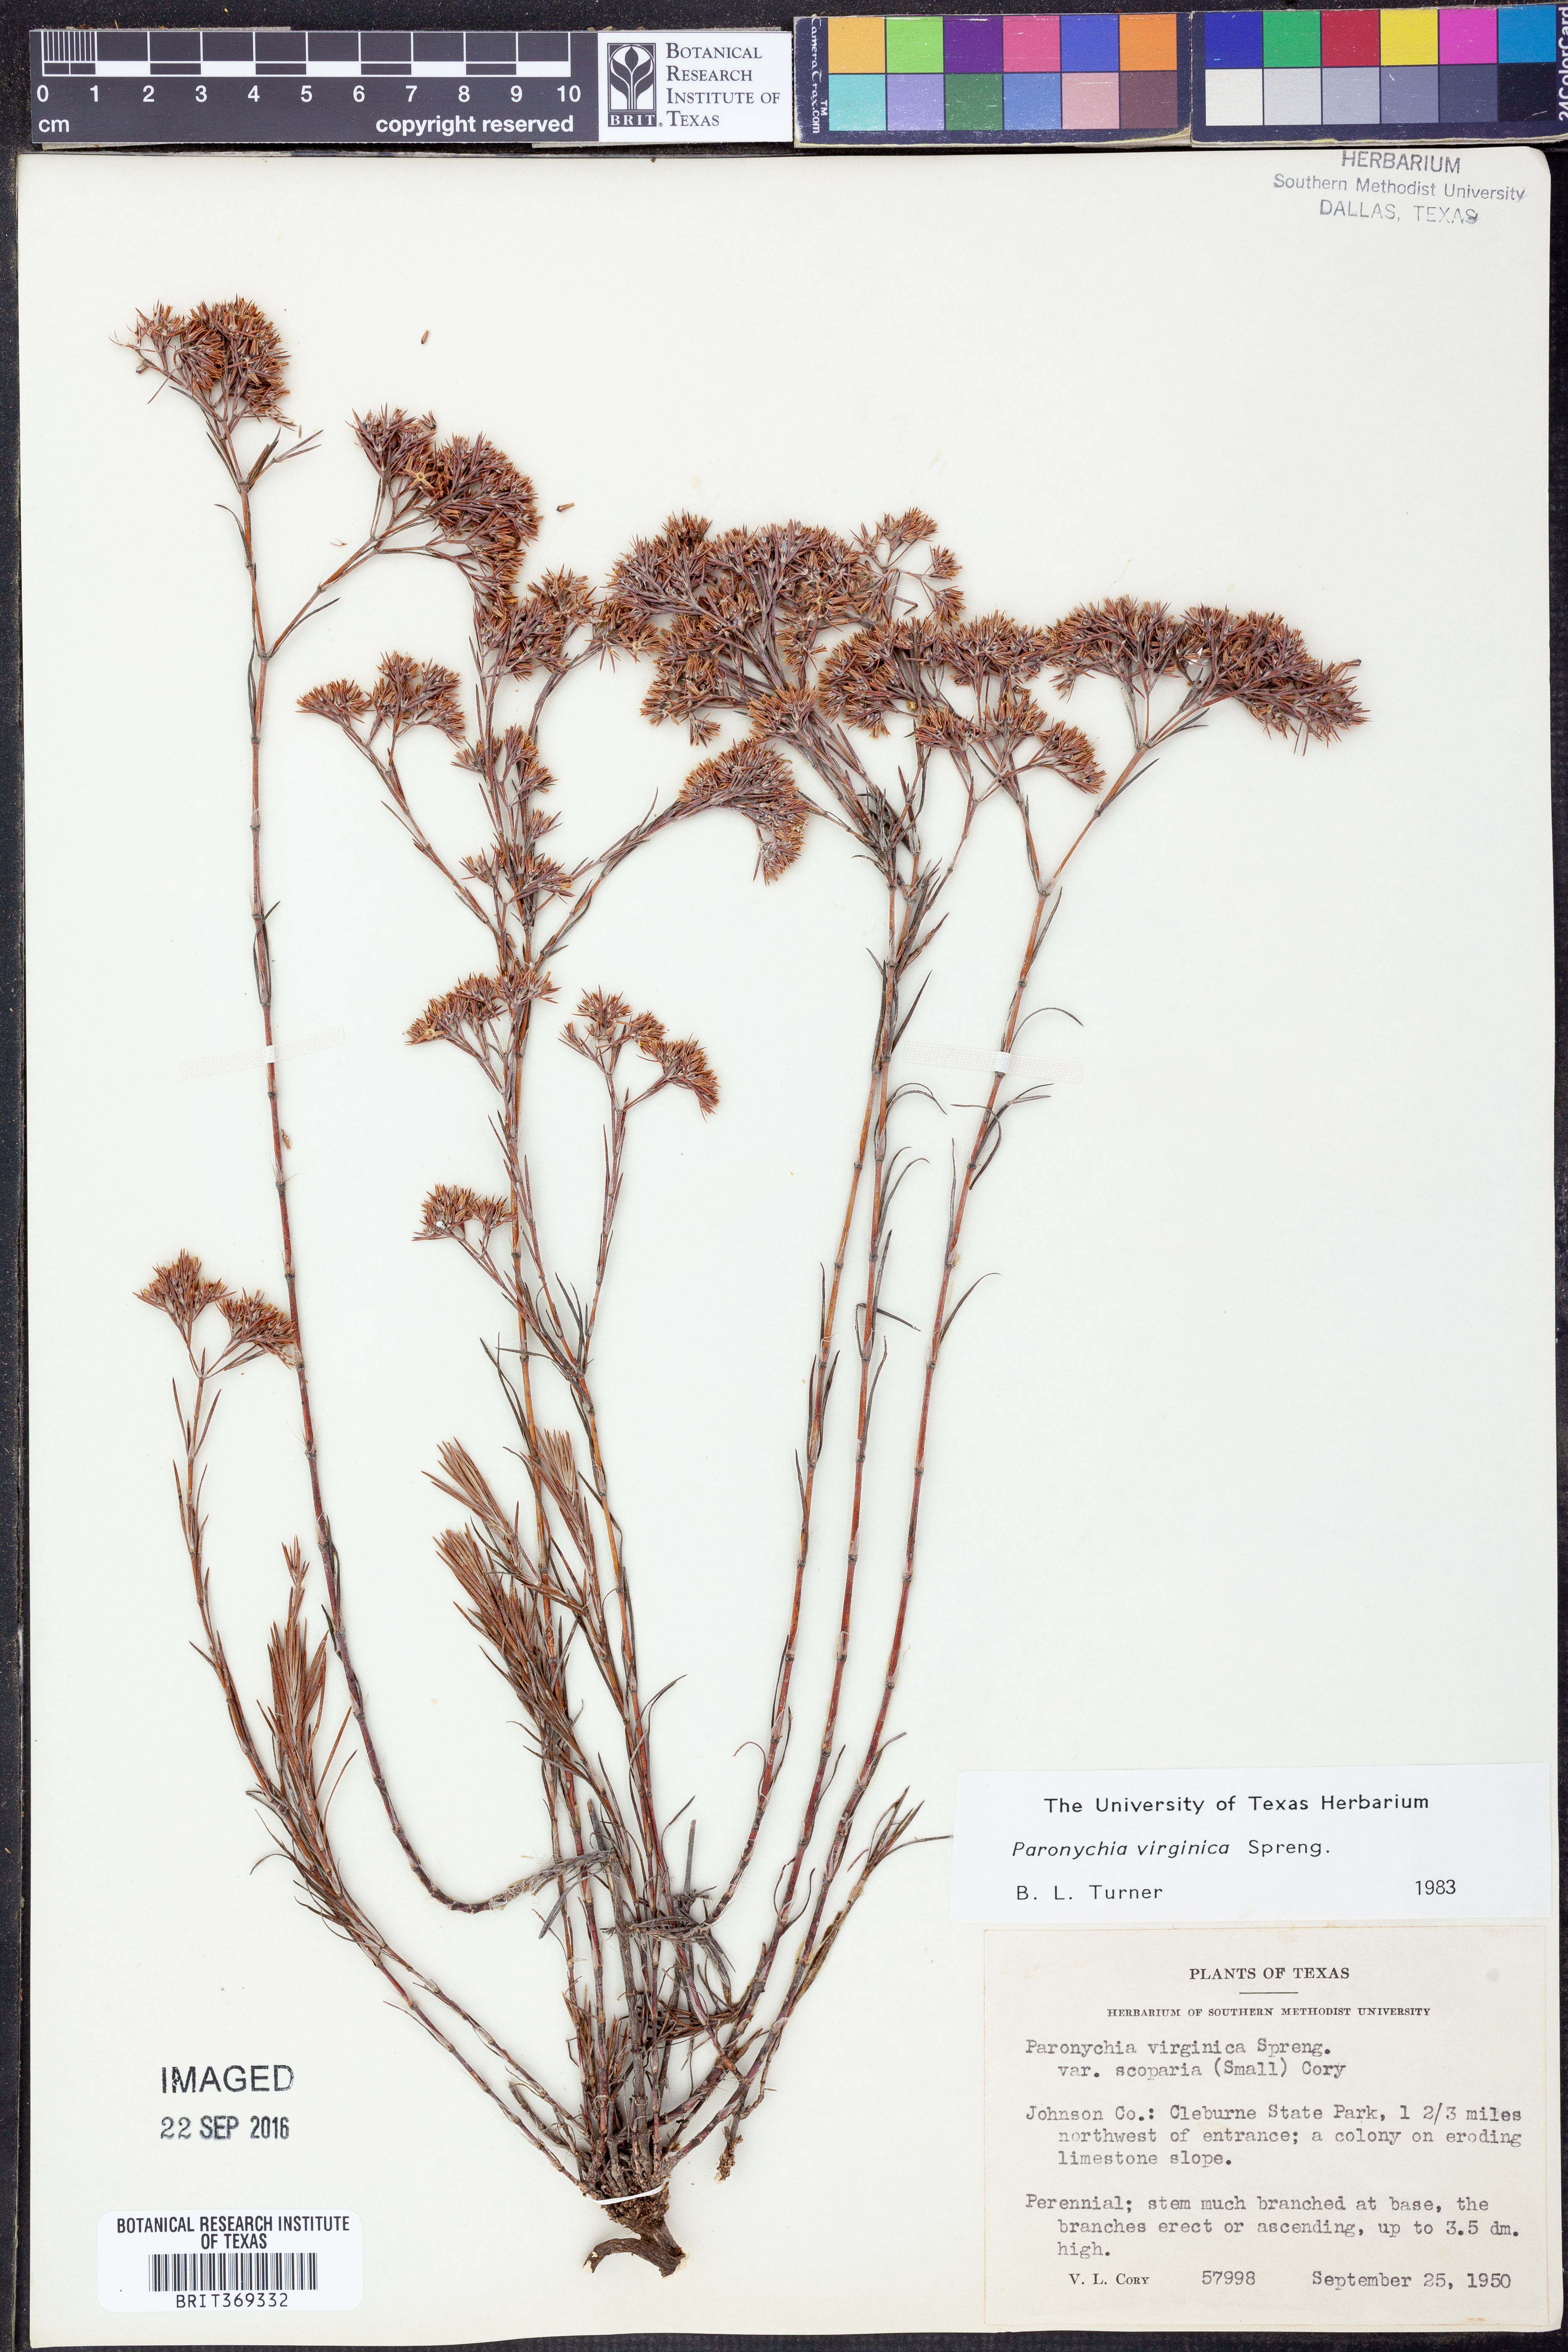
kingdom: Plantae
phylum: Tracheophyta
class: Magnoliopsida
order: Caryophyllales
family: Caryophyllaceae
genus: Paronychia
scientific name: Paronychia virginica
